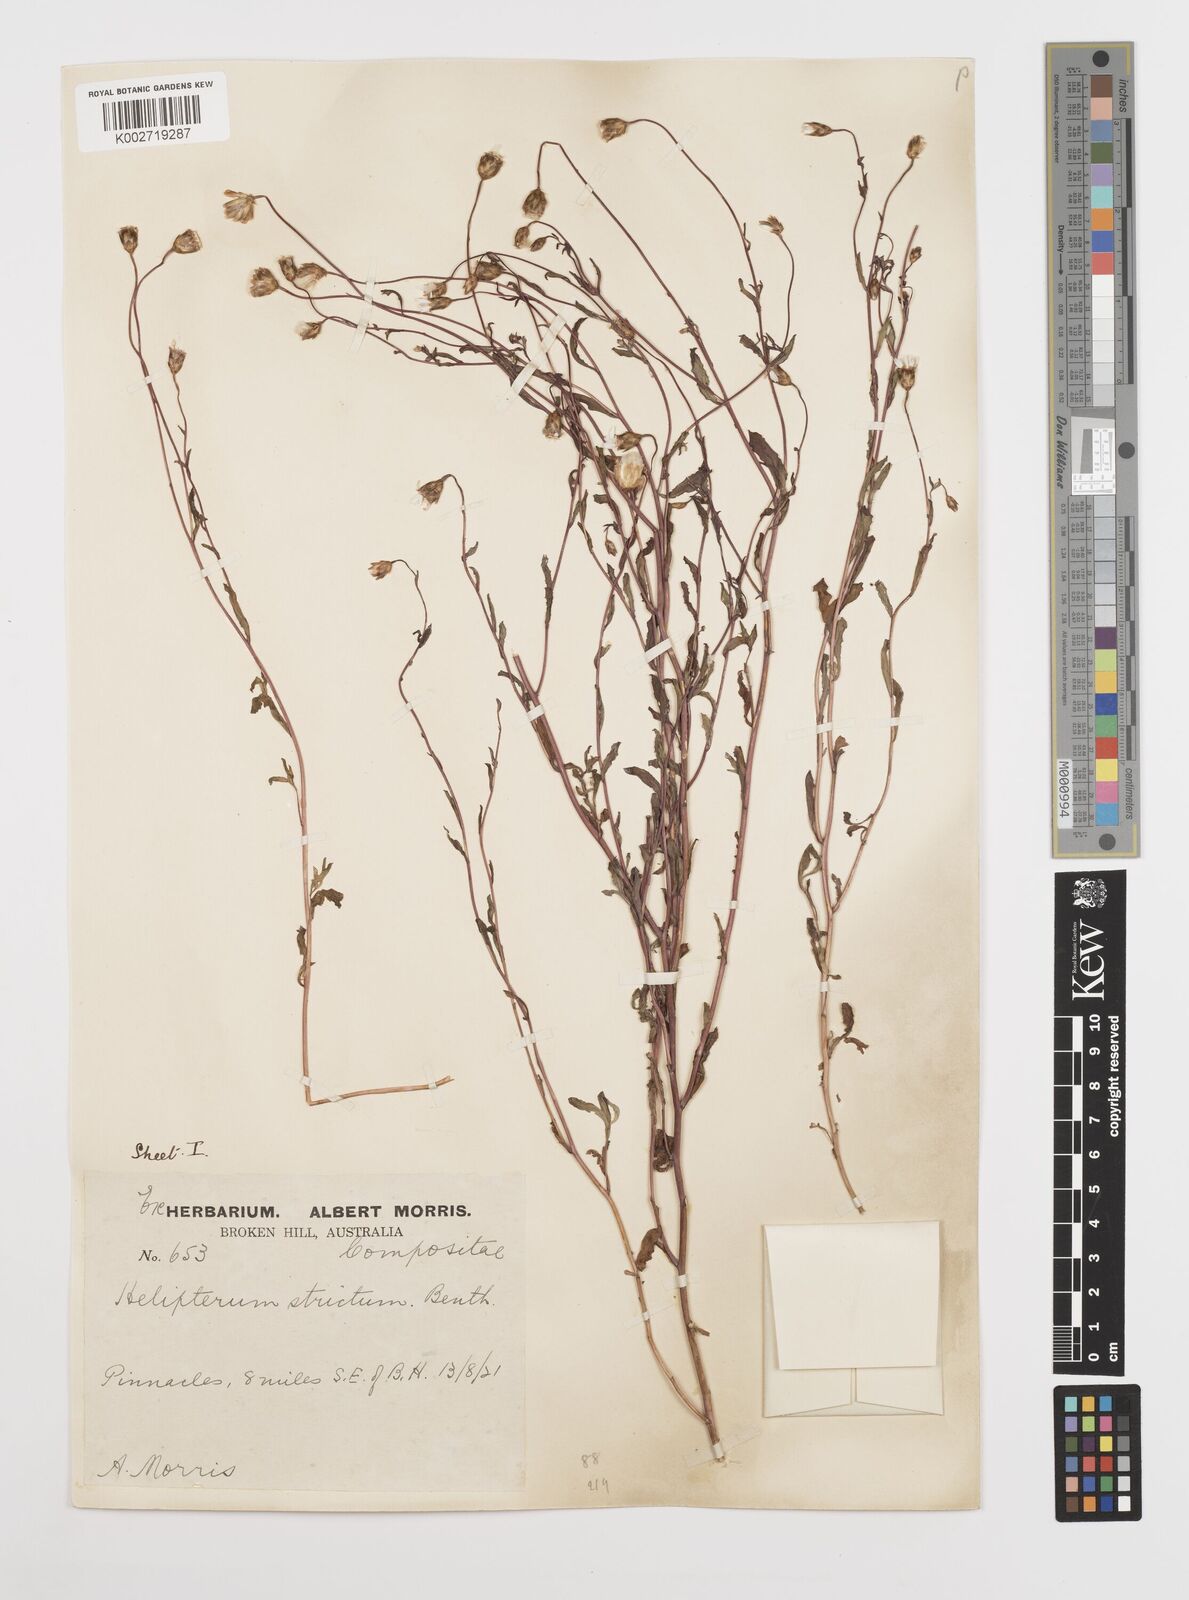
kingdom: Plantae
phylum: Tracheophyta
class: Magnoliopsida
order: Asterales
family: Asteraceae
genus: Rhodanthe
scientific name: Rhodanthe stricta
